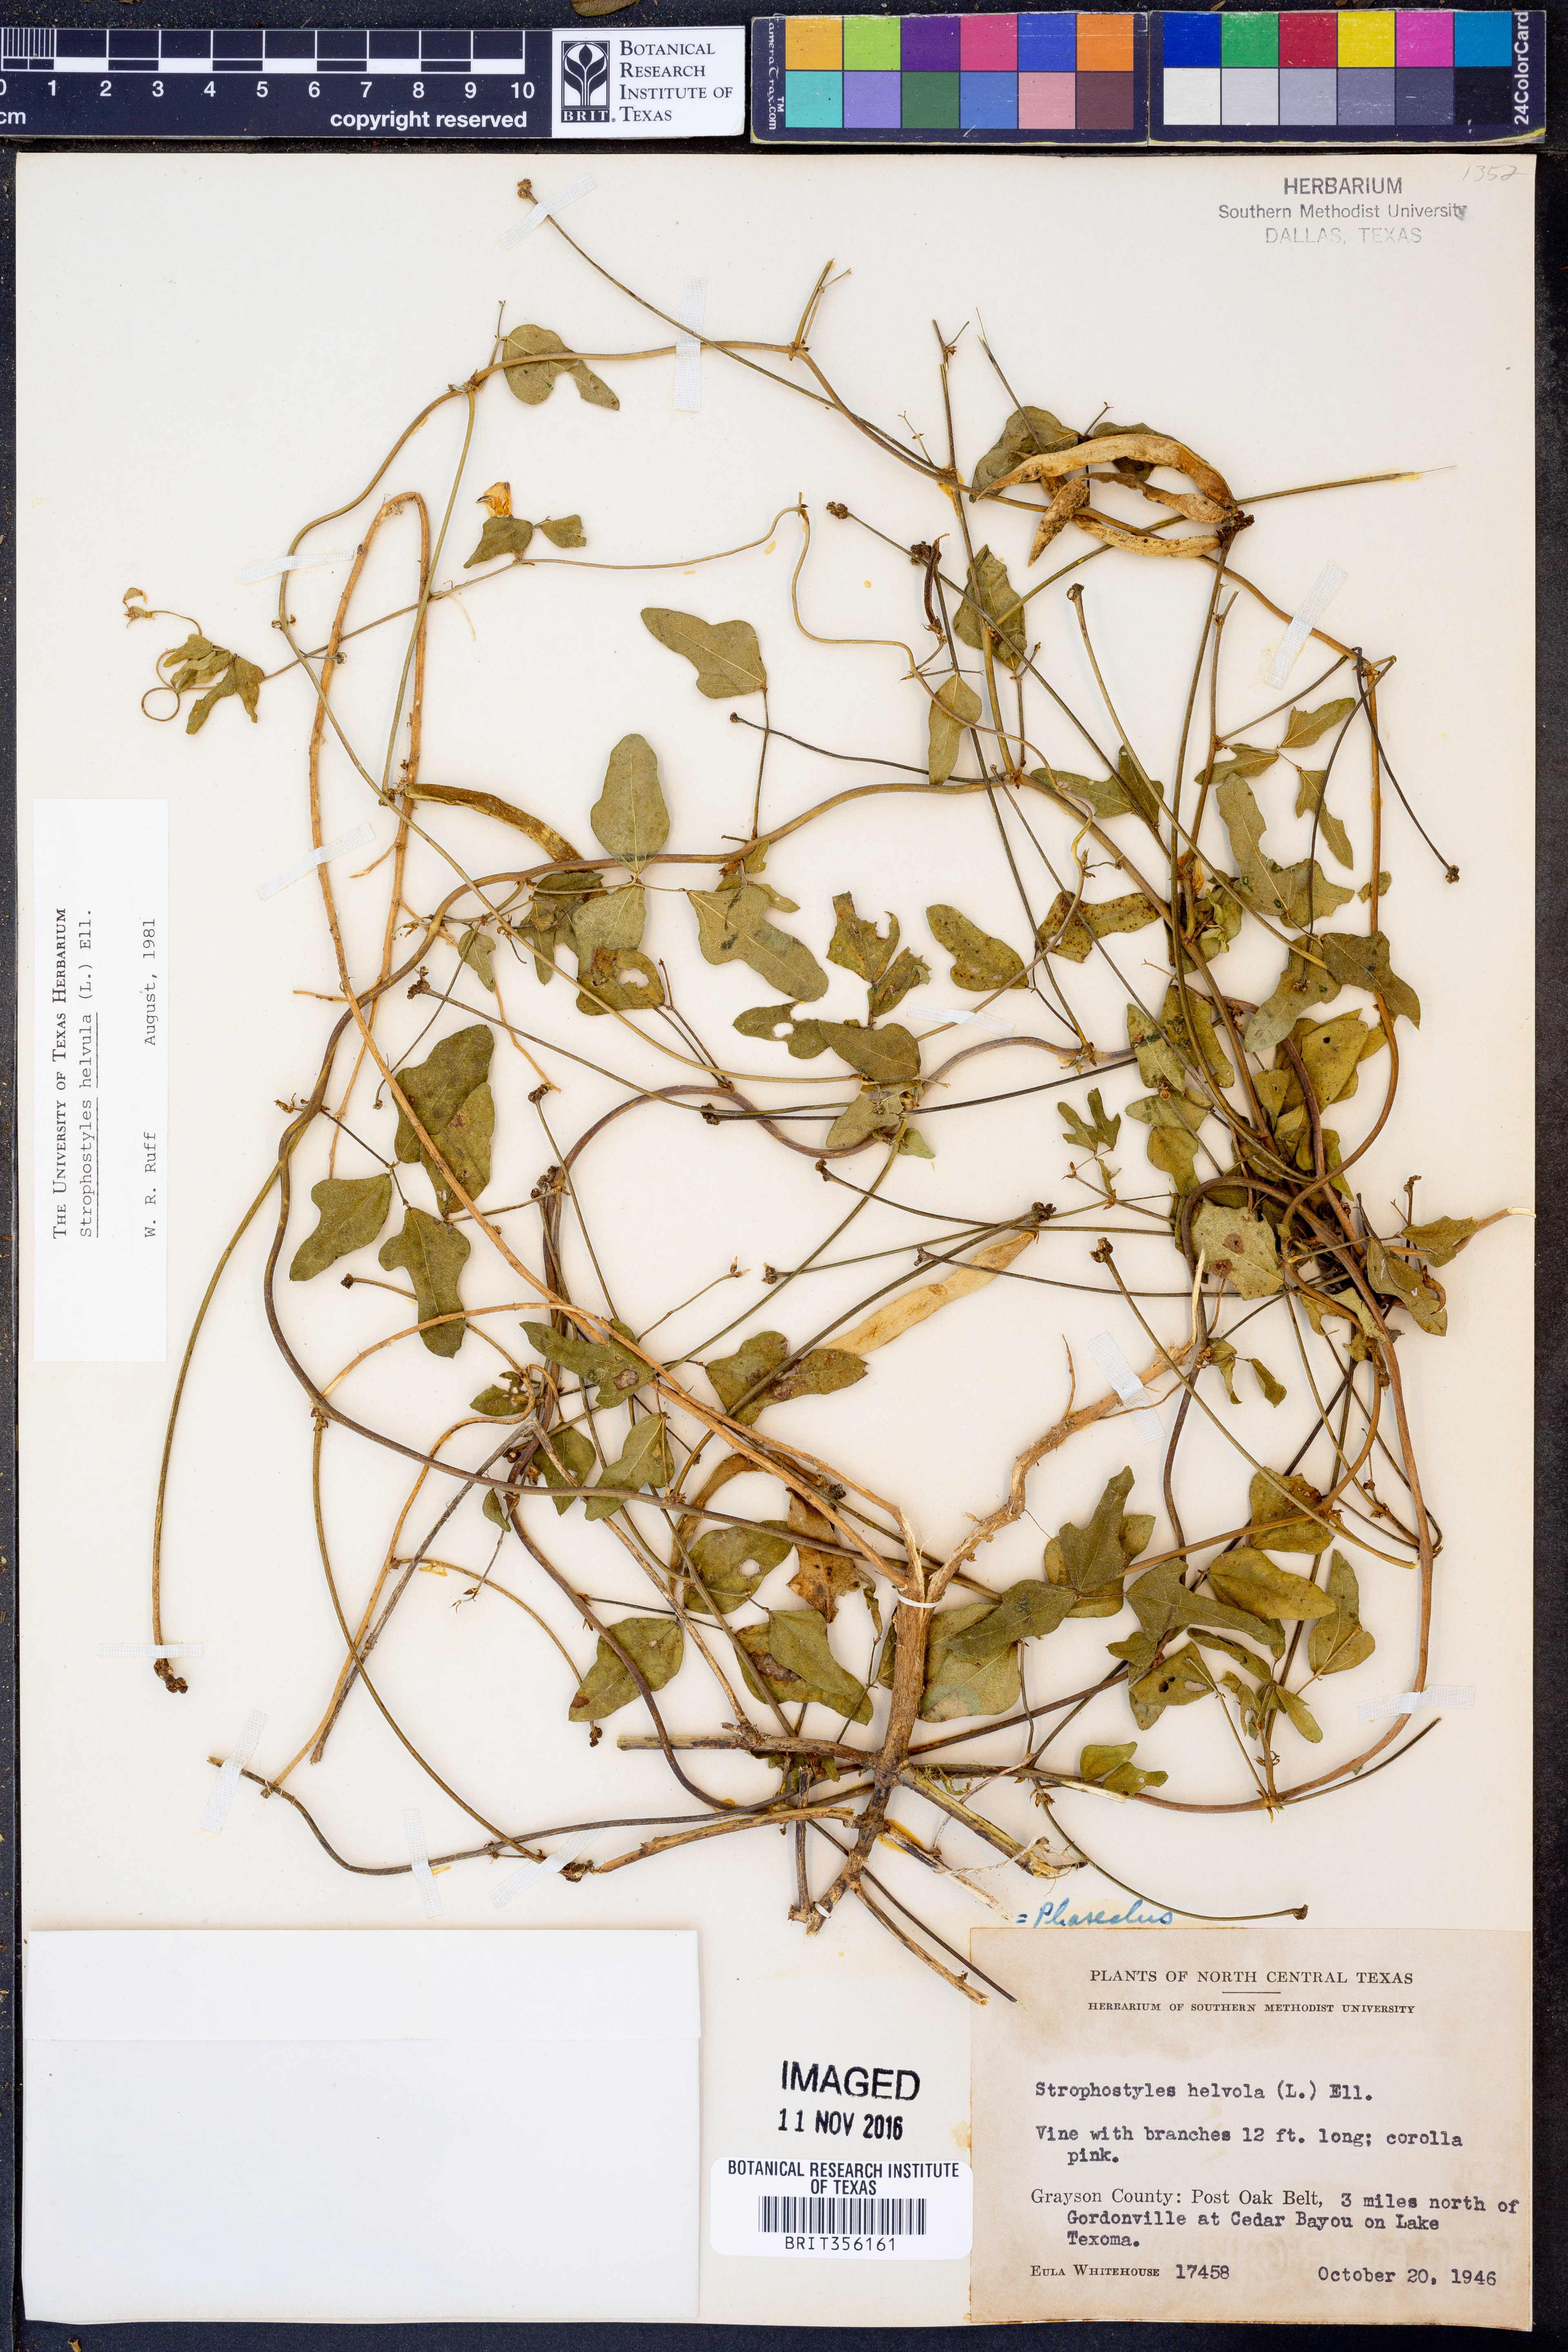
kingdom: Plantae
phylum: Tracheophyta
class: Magnoliopsida
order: Fabales
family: Fabaceae
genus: Strophostyles
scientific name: Strophostyles helvola
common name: Trailing wild bean
